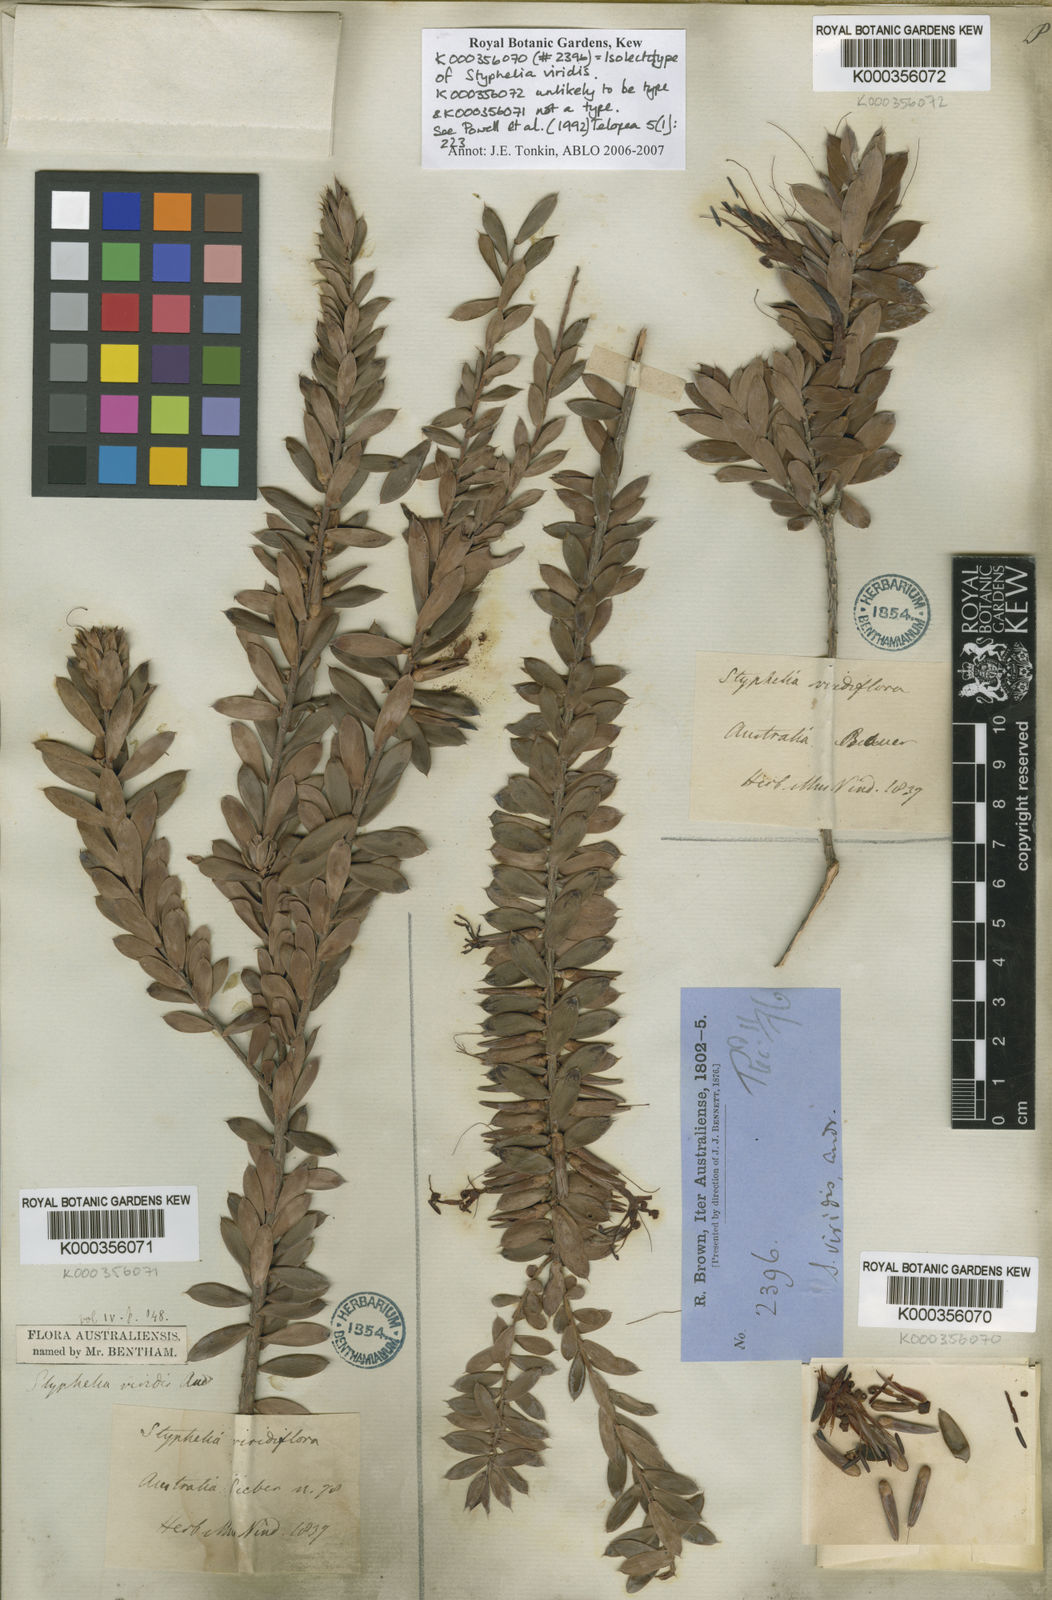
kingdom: Plantae
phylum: Tracheophyta
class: Magnoliopsida
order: Ericales
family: Ericaceae
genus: Styphelia
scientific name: Styphelia viridis
